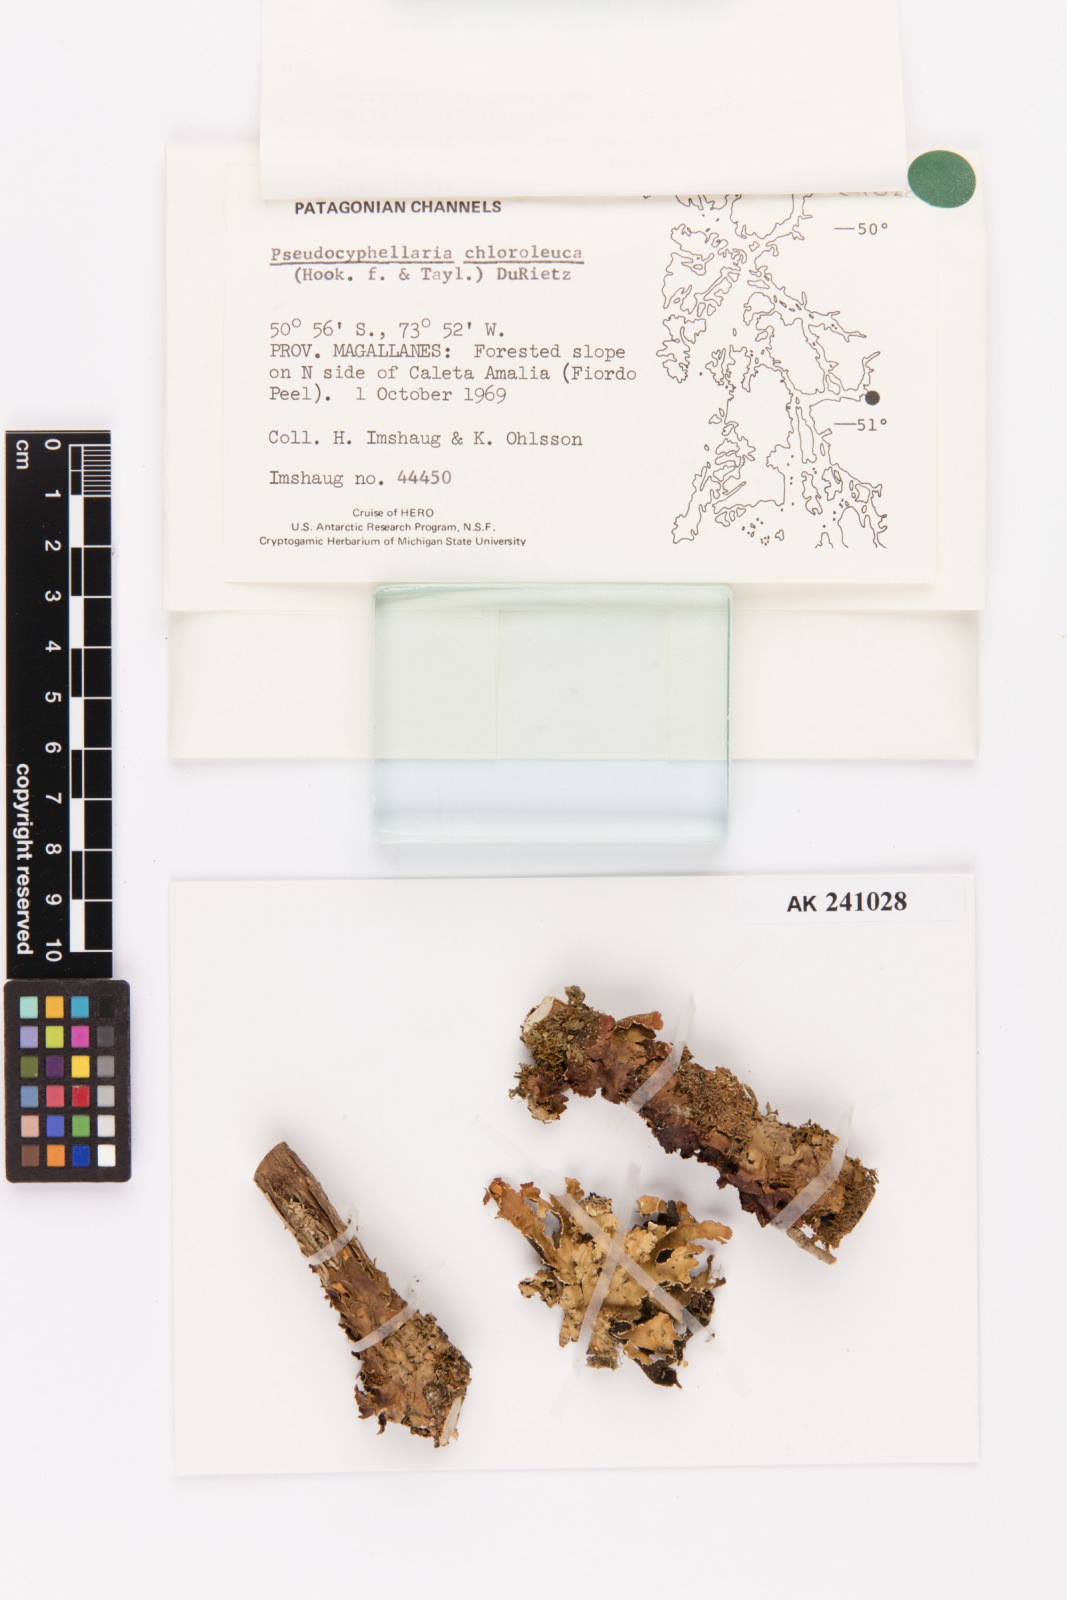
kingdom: Fungi
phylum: Ascomycota
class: Lecanoromycetes
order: Peltigerales
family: Lobariaceae
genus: Pseudocyphellaria
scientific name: Pseudocyphellaria chloroleuca
